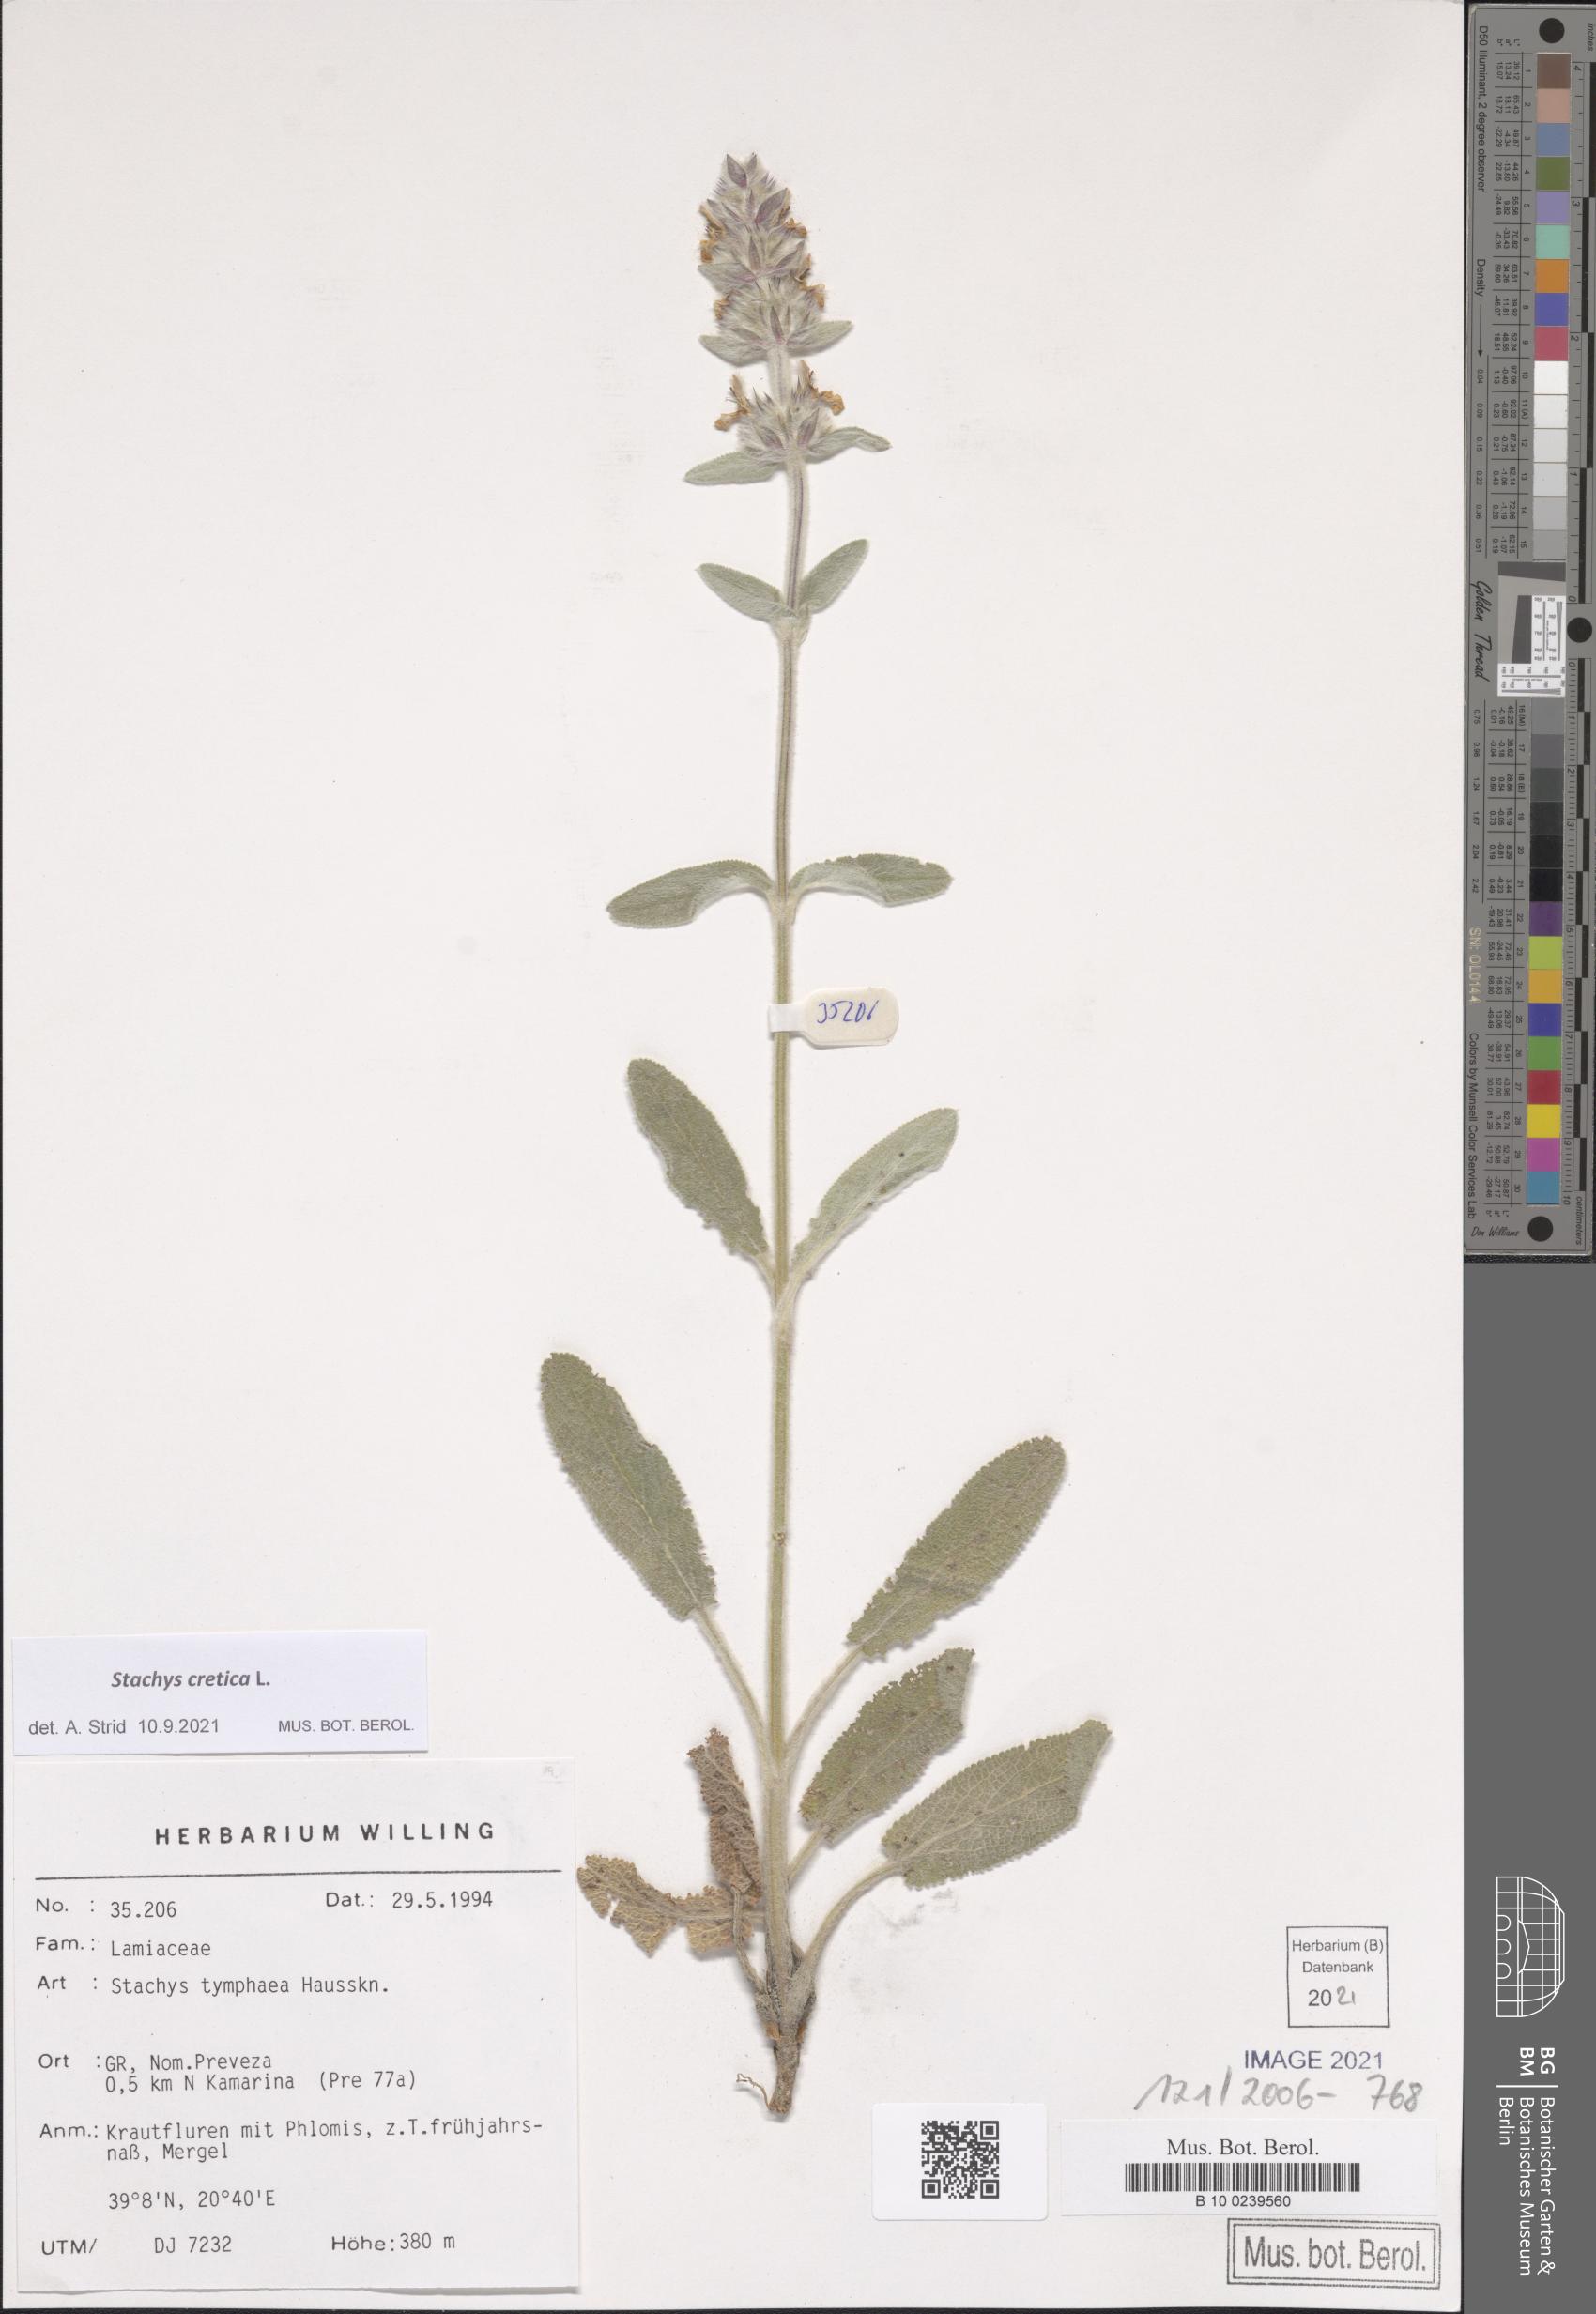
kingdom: Plantae
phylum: Tracheophyta
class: Magnoliopsida
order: Lamiales
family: Lamiaceae
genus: Stachys
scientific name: Stachys cretica
